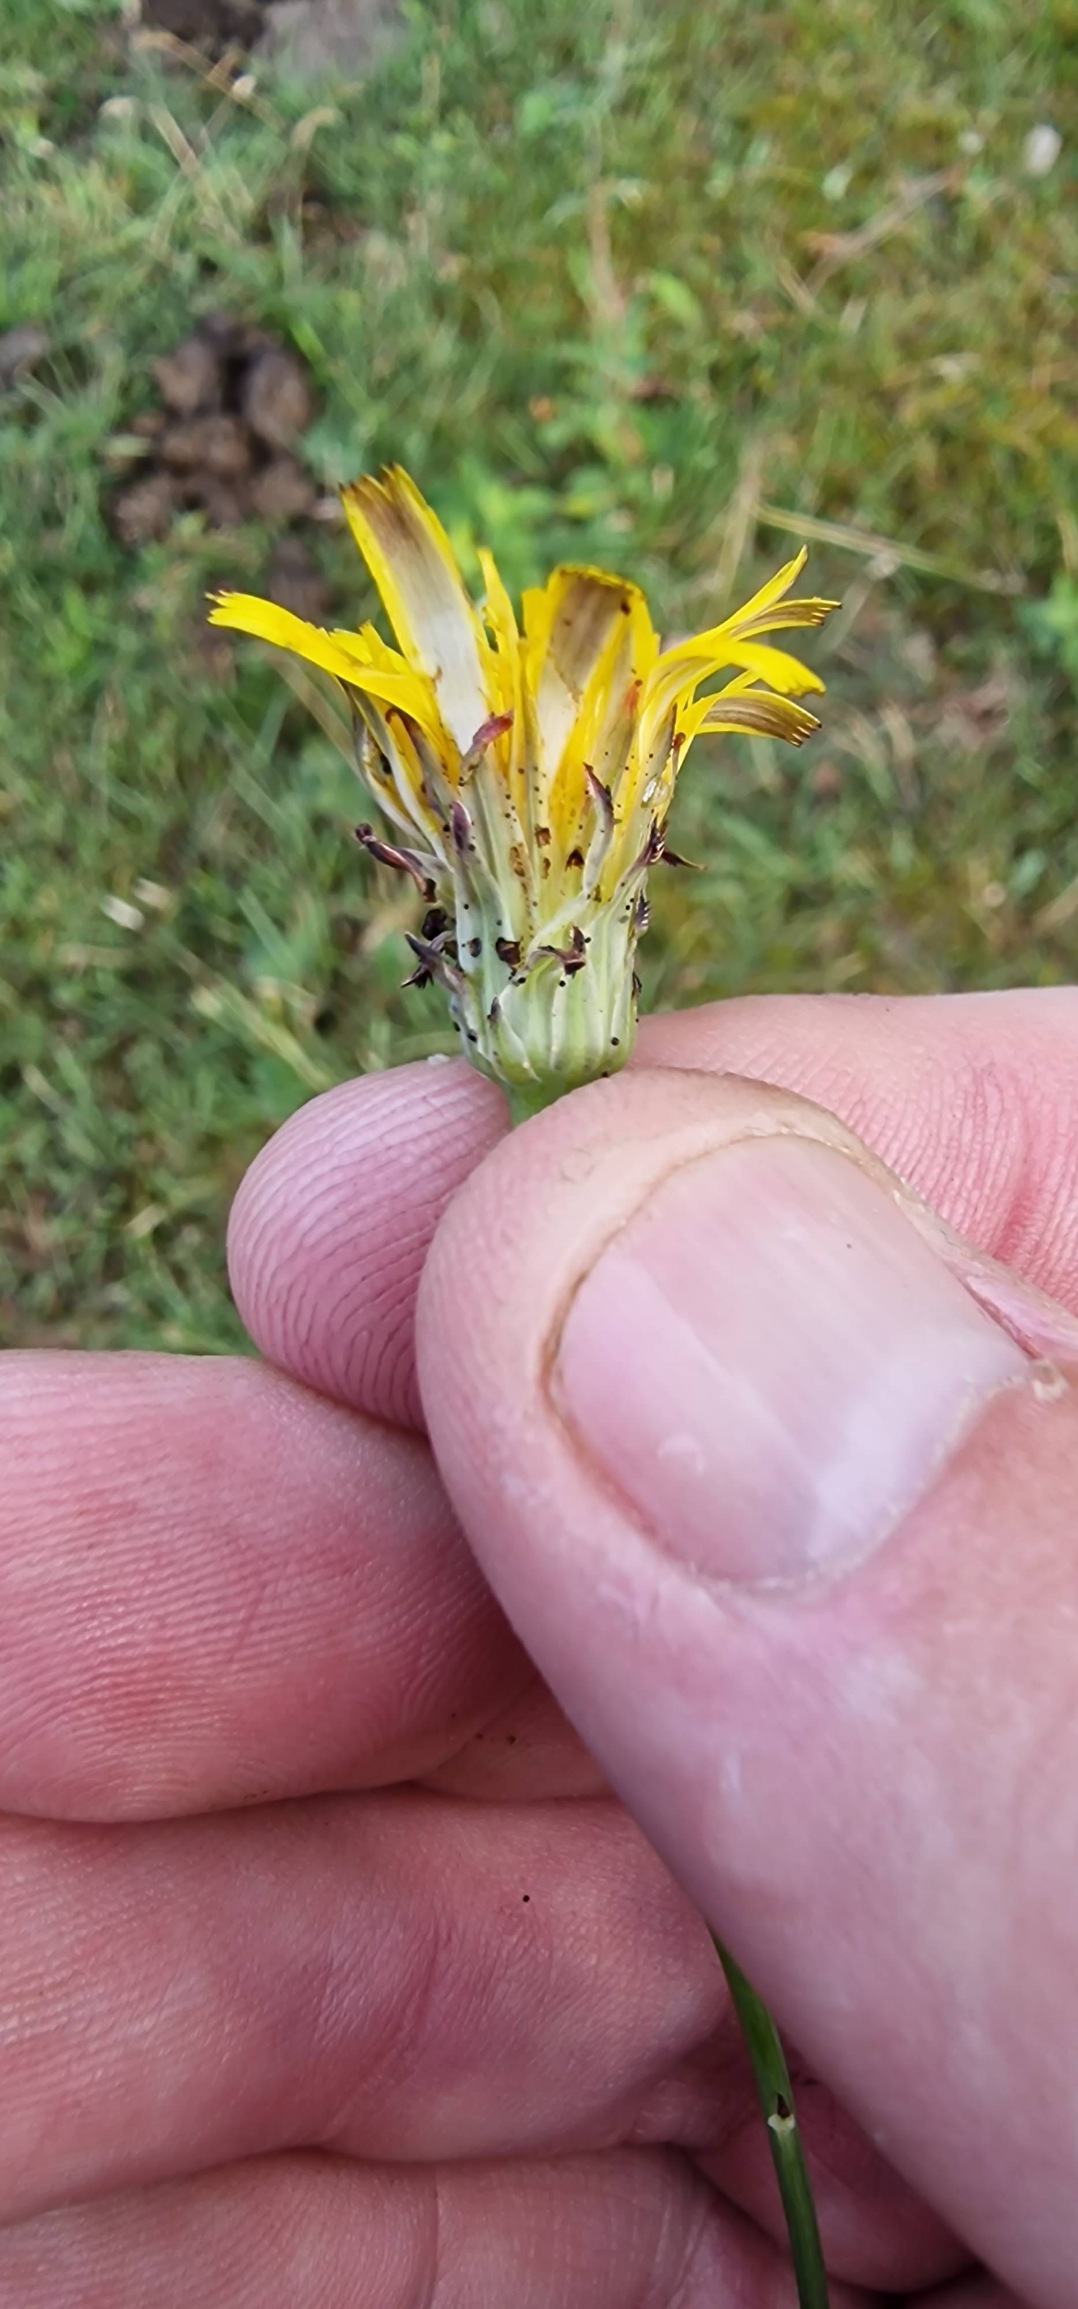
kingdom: Plantae
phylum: Tracheophyta
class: Magnoliopsida
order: Asterales
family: Asteraceae
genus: Hypochaeris
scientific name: Hypochaeris radicata
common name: Almindelig kongepen
